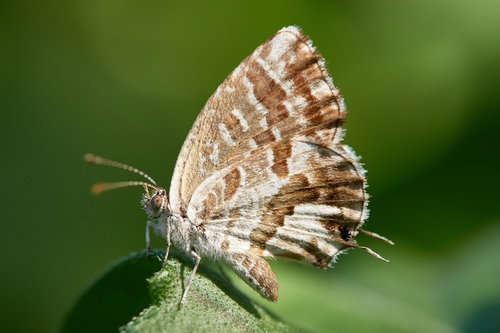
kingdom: Animalia
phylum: Arthropoda
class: Insecta
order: Lepidoptera
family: Lycaenidae
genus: Cacyreus
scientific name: Cacyreus marshalli
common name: Geranium bronze
